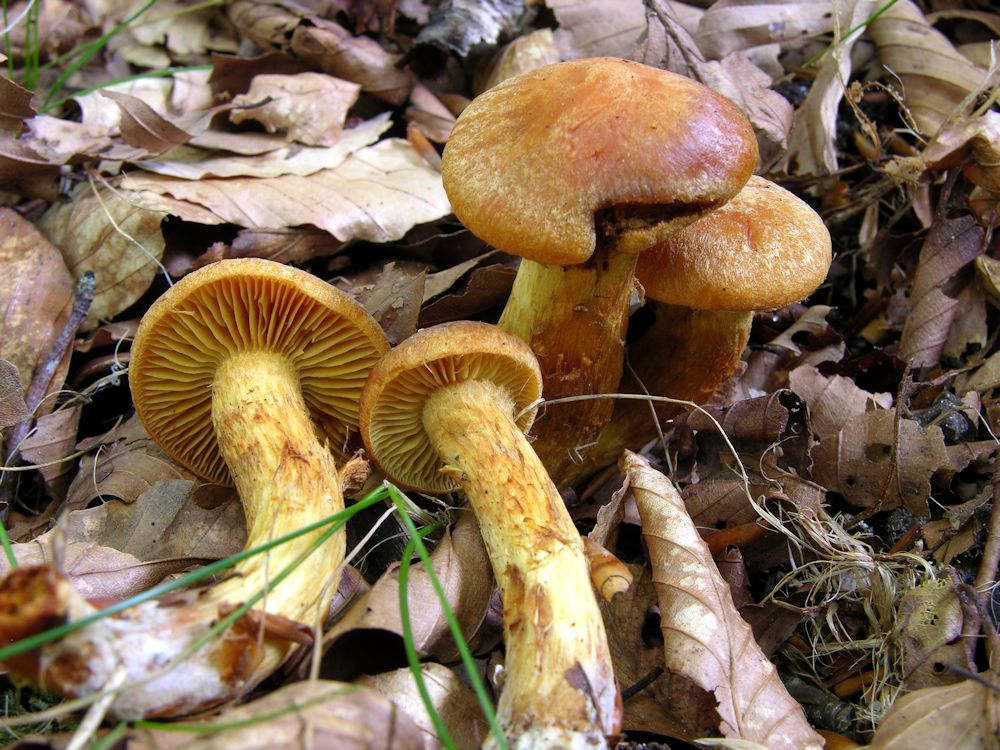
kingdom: Fungi
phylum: Basidiomycota
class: Agaricomycetes
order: Agaricales
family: Cortinariaceae
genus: Aureonarius
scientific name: Aureonarius tofaceus
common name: ravgul slørhat
